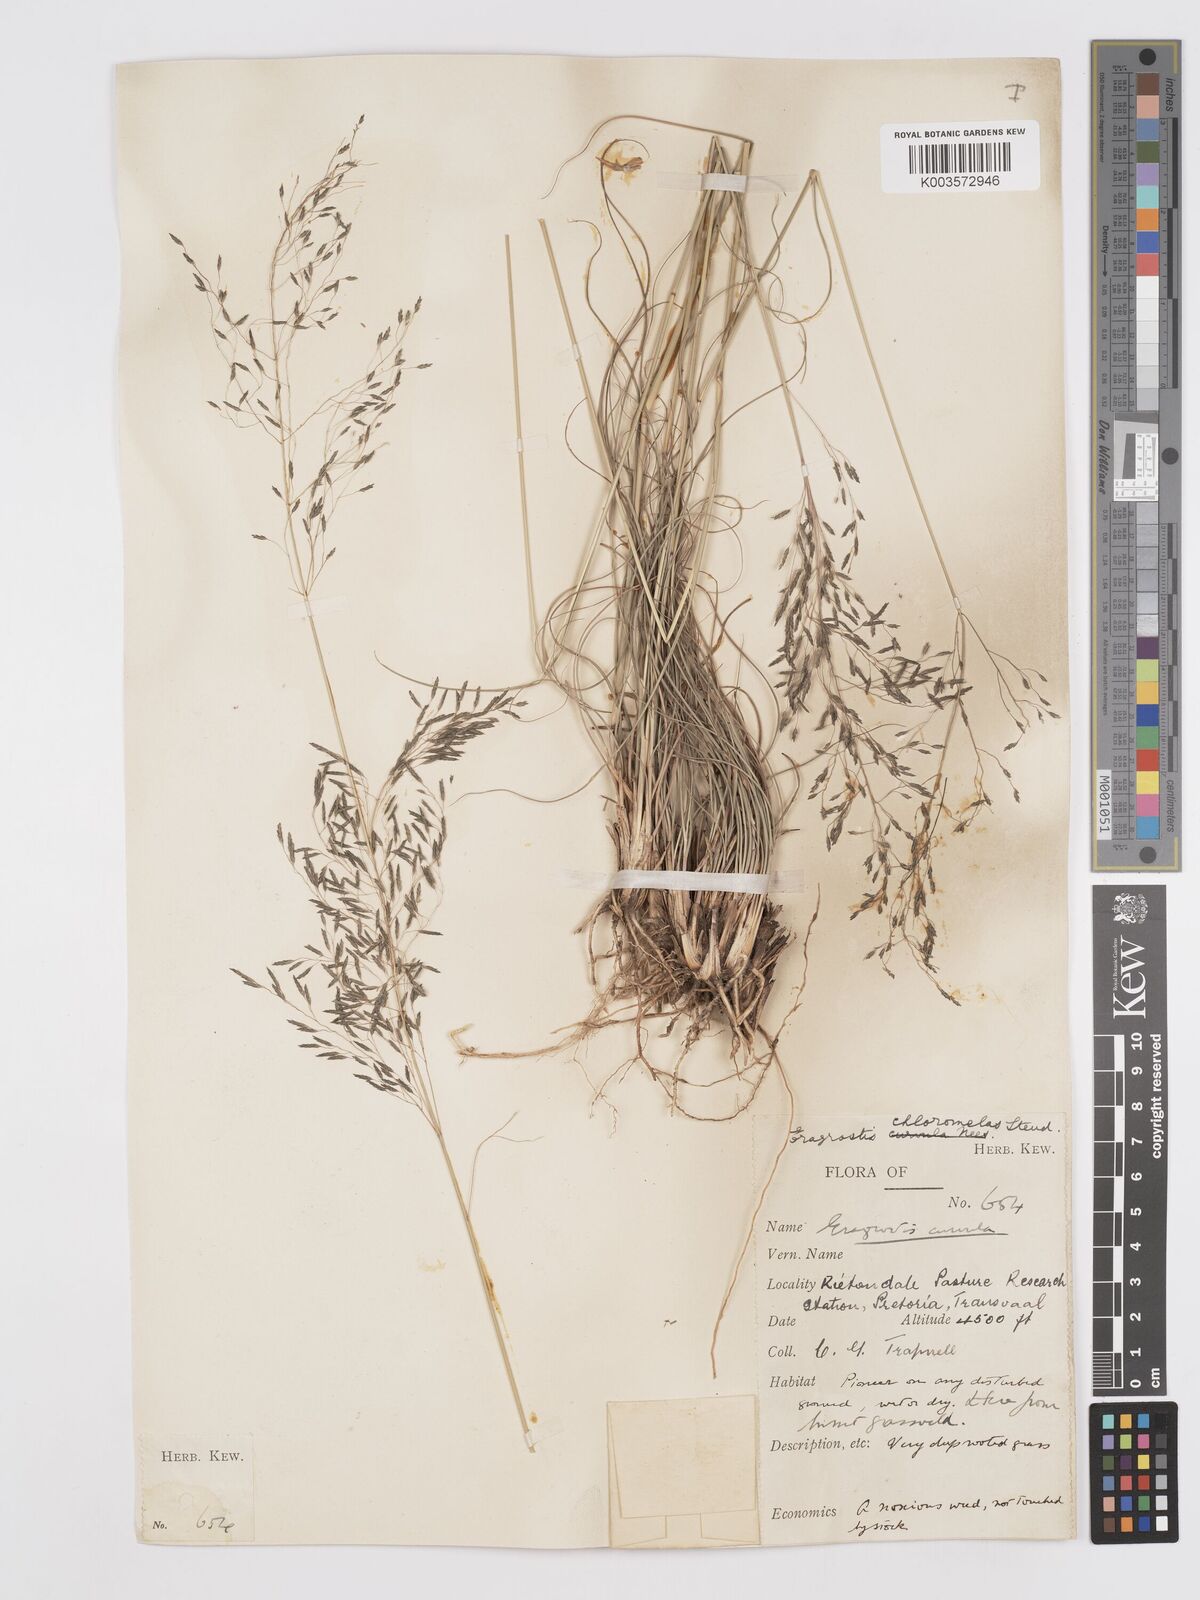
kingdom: Plantae
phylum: Tracheophyta
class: Liliopsida
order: Poales
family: Poaceae
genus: Eragrostis
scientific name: Eragrostis curvula
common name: African love-grass
